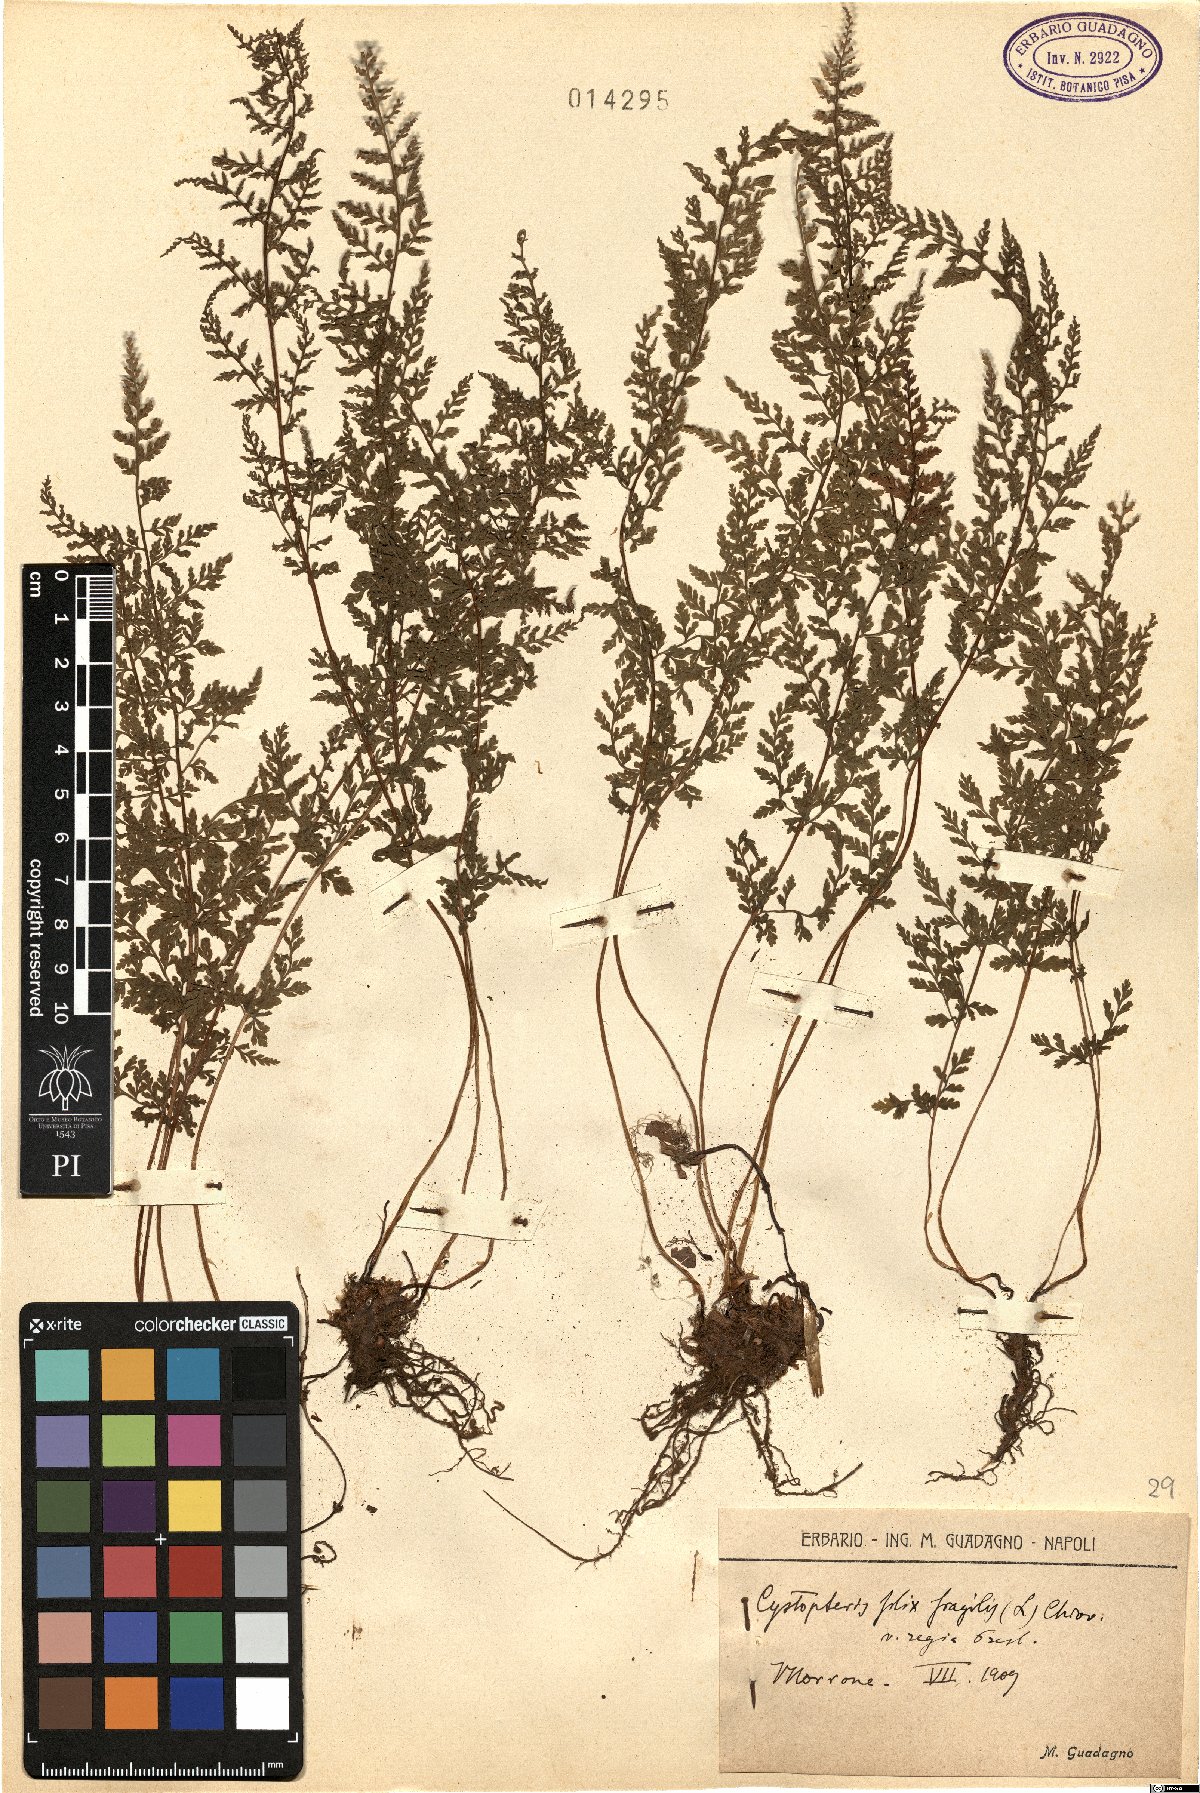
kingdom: Plantae
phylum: Tracheophyta
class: Polypodiopsida
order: Polypodiales
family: Cystopteridaceae
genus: Cystopteris
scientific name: Cystopteris alpina
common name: Alpine bladder-fern
